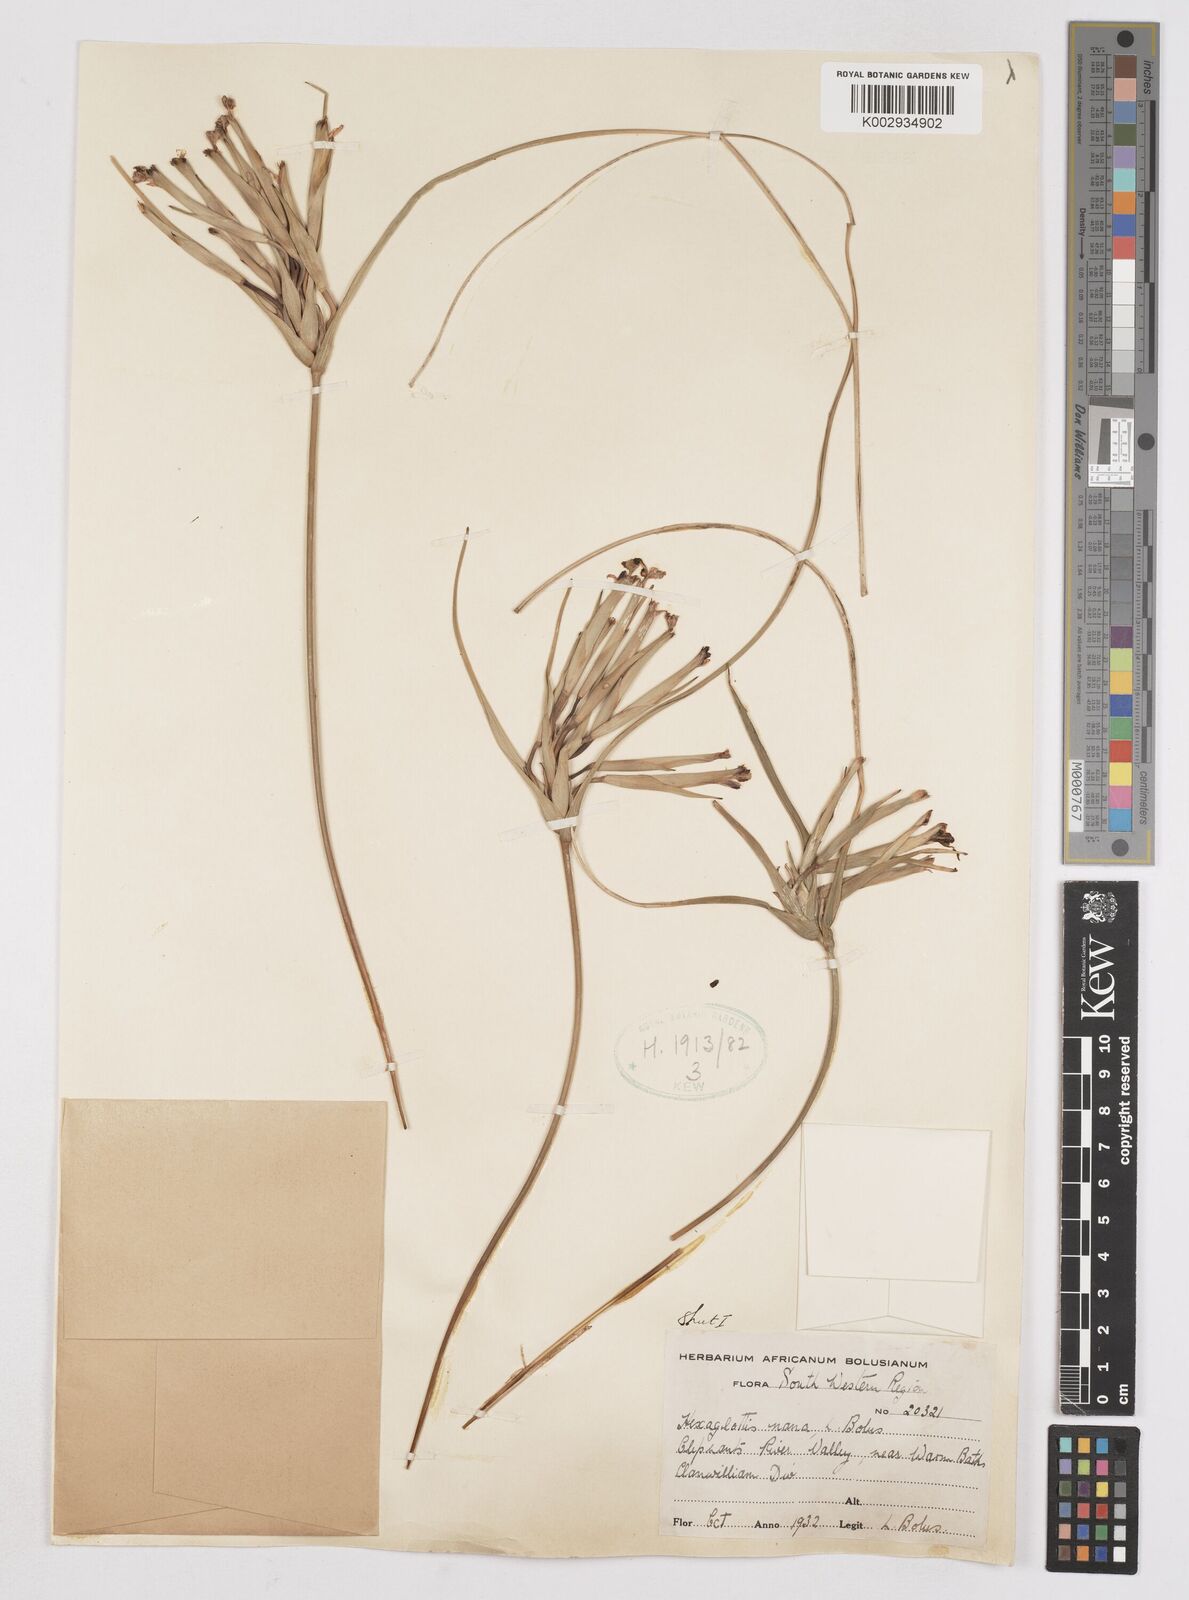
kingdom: Plantae
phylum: Tracheophyta
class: Liliopsida
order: Asparagales
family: Iridaceae
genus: Moraea
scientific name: Moraea nana
